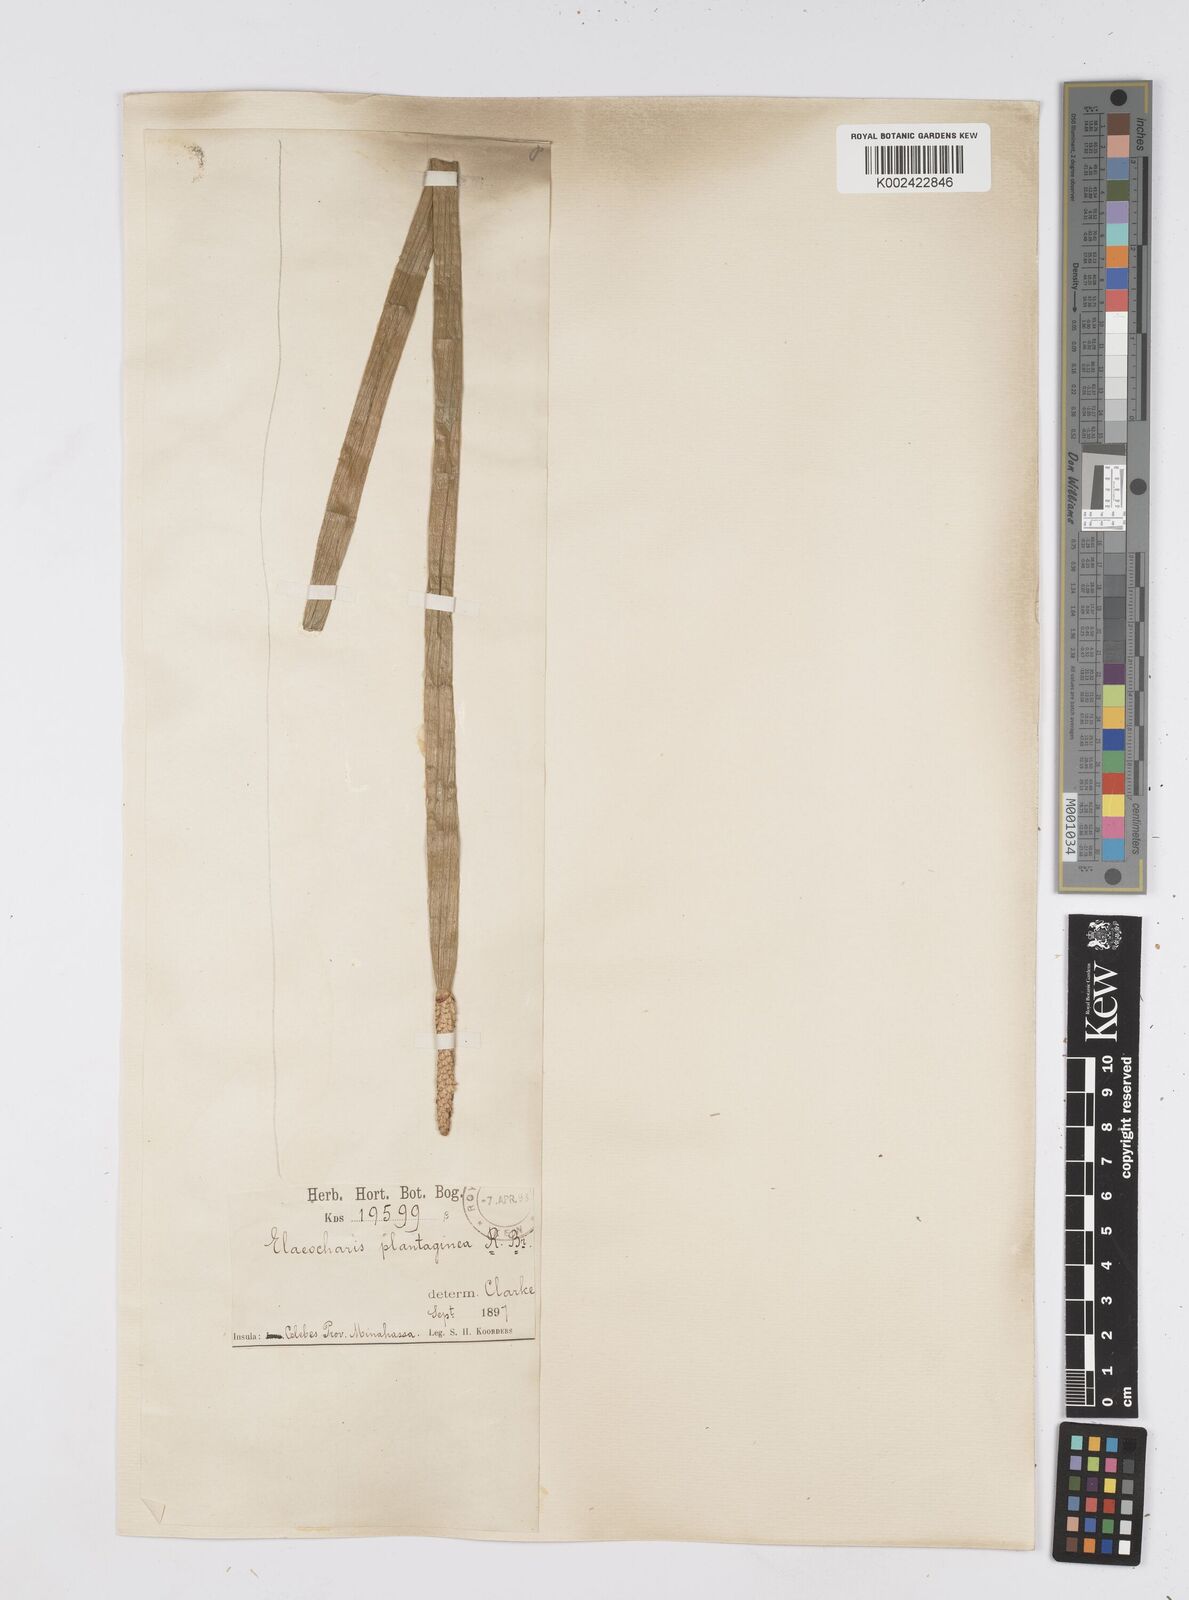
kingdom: Plantae
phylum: Tracheophyta
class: Liliopsida
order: Poales
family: Cyperaceae
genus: Eleocharis
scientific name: Eleocharis dulcis
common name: Chinese water chestnut
